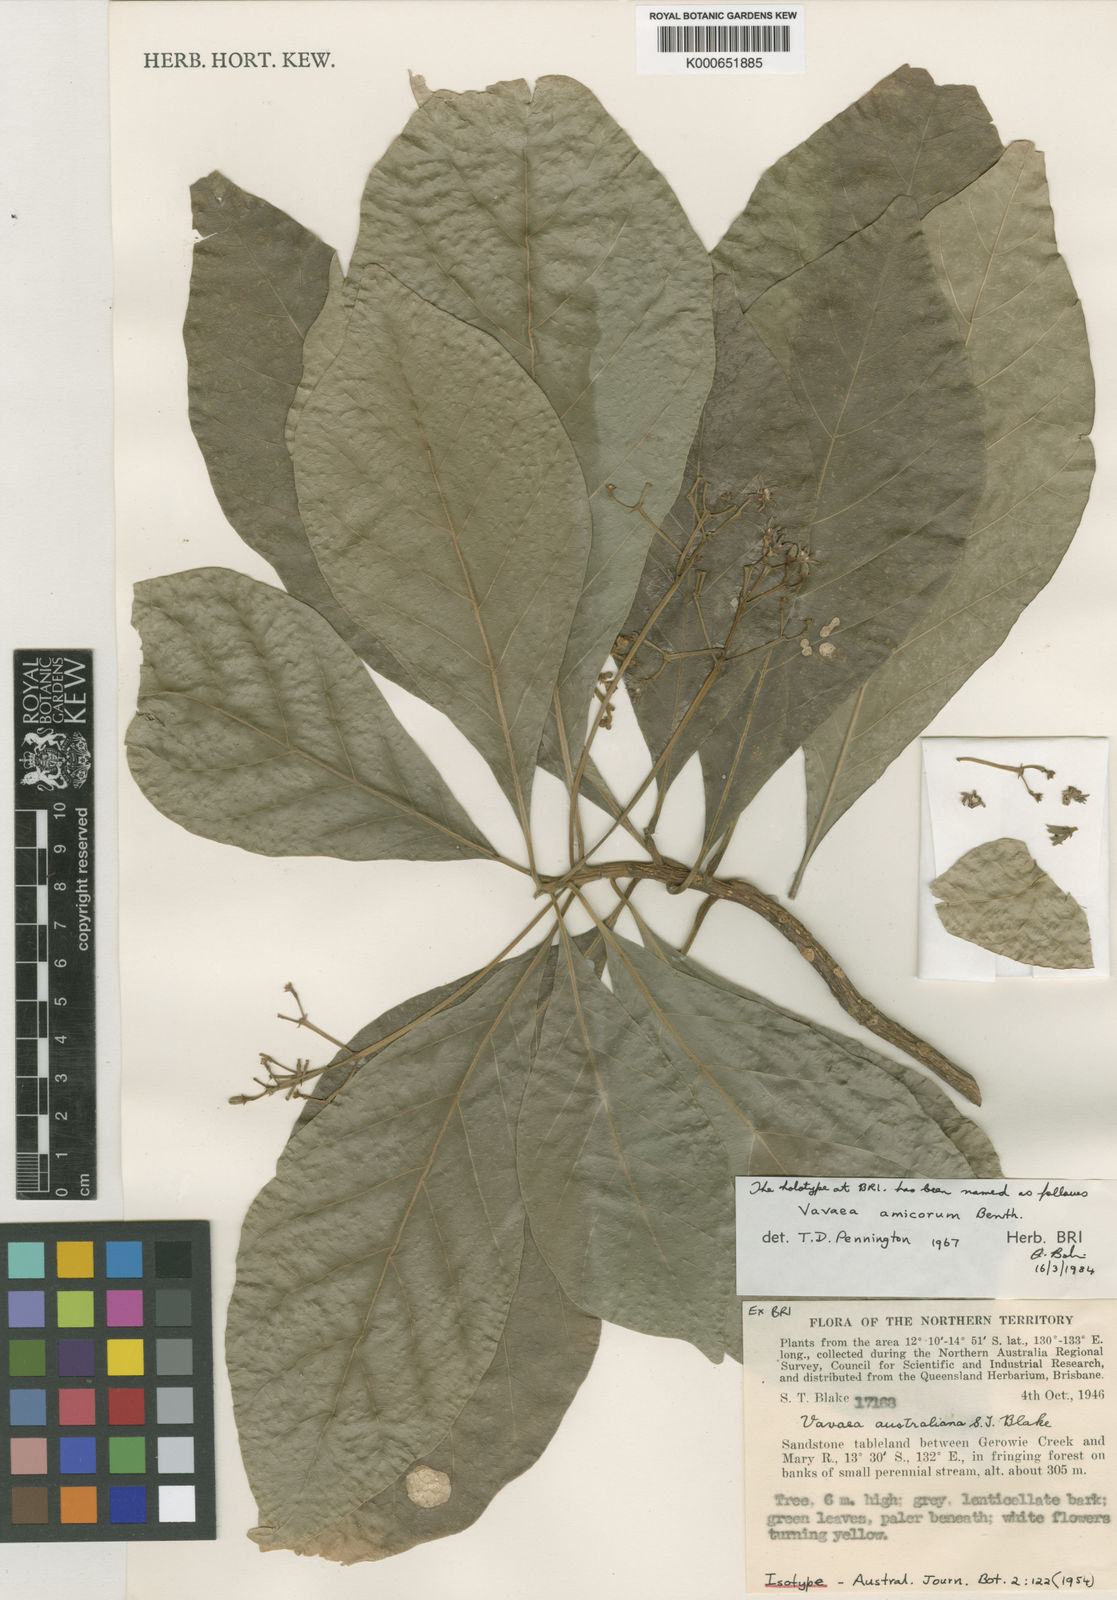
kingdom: Plantae
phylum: Tracheophyta
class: Magnoliopsida
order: Sapindales
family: Meliaceae
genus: Vavaea
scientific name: Vavaea amicorum
